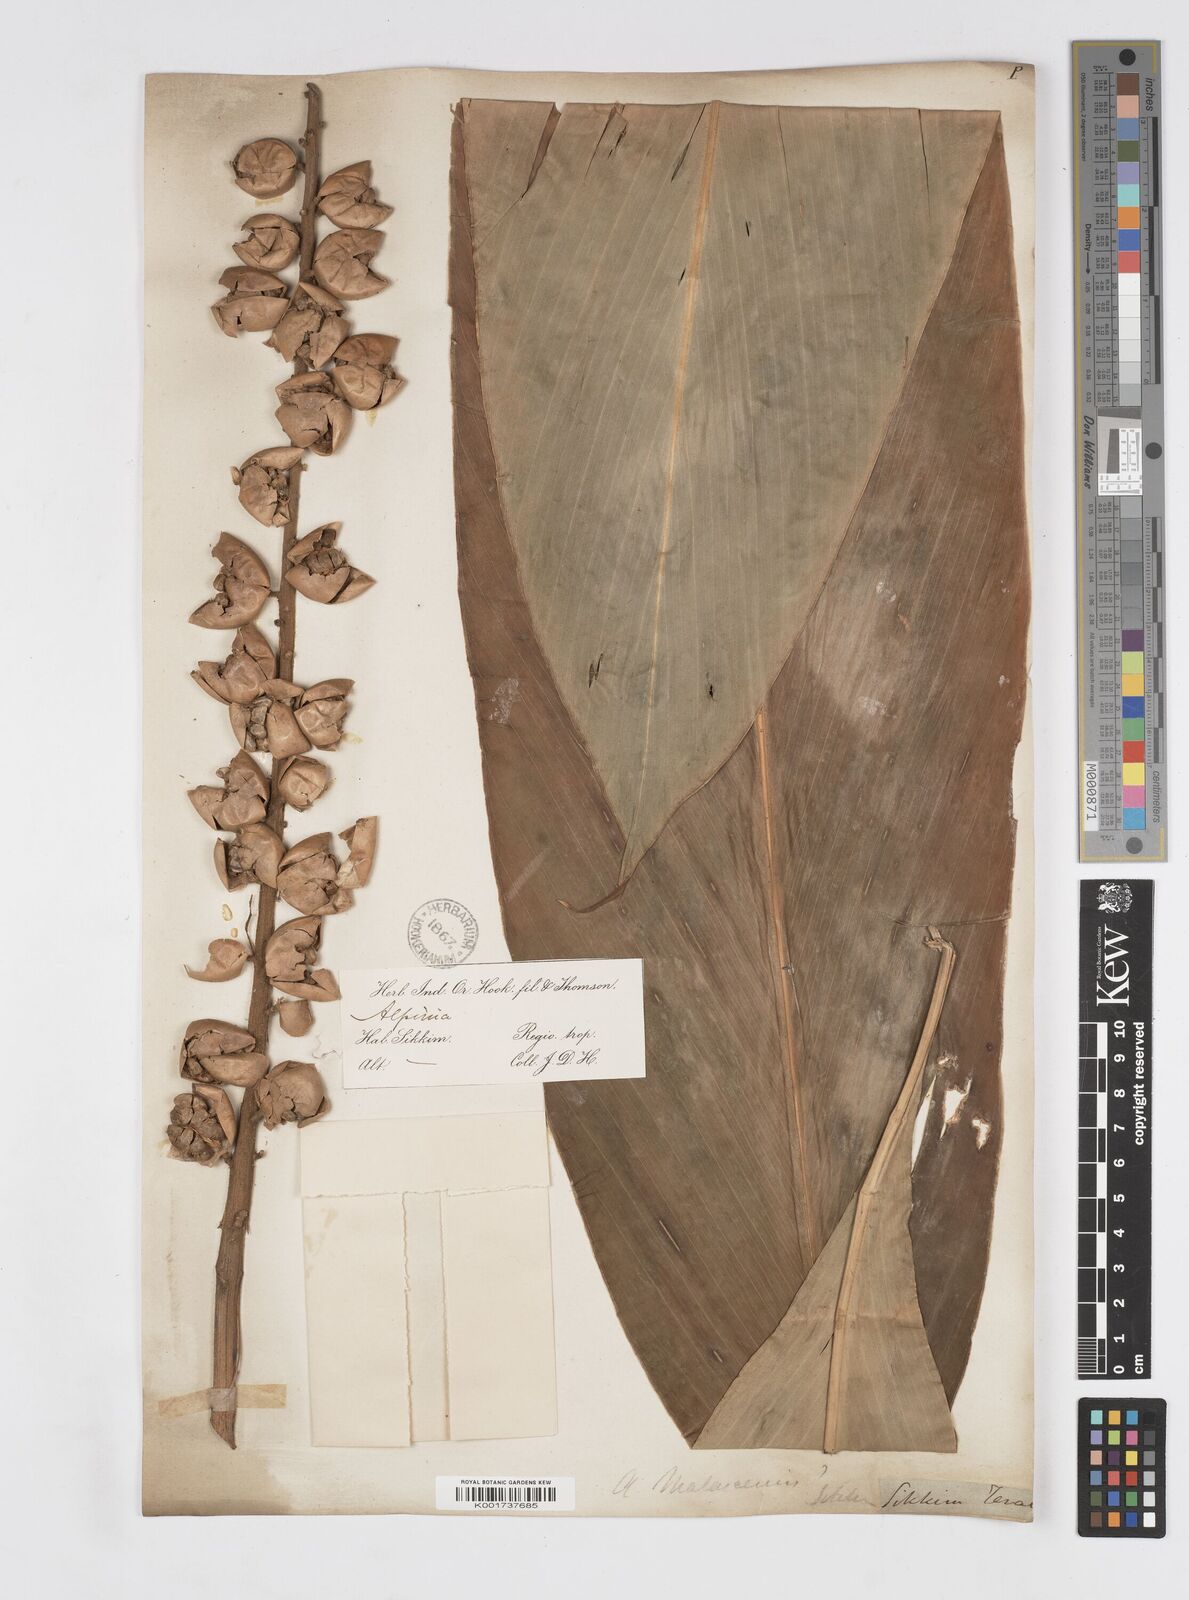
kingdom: Plantae
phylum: Tracheophyta
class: Liliopsida
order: Zingiberales
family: Zingiberaceae
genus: Alpinia
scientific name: Alpinia malaccensis
